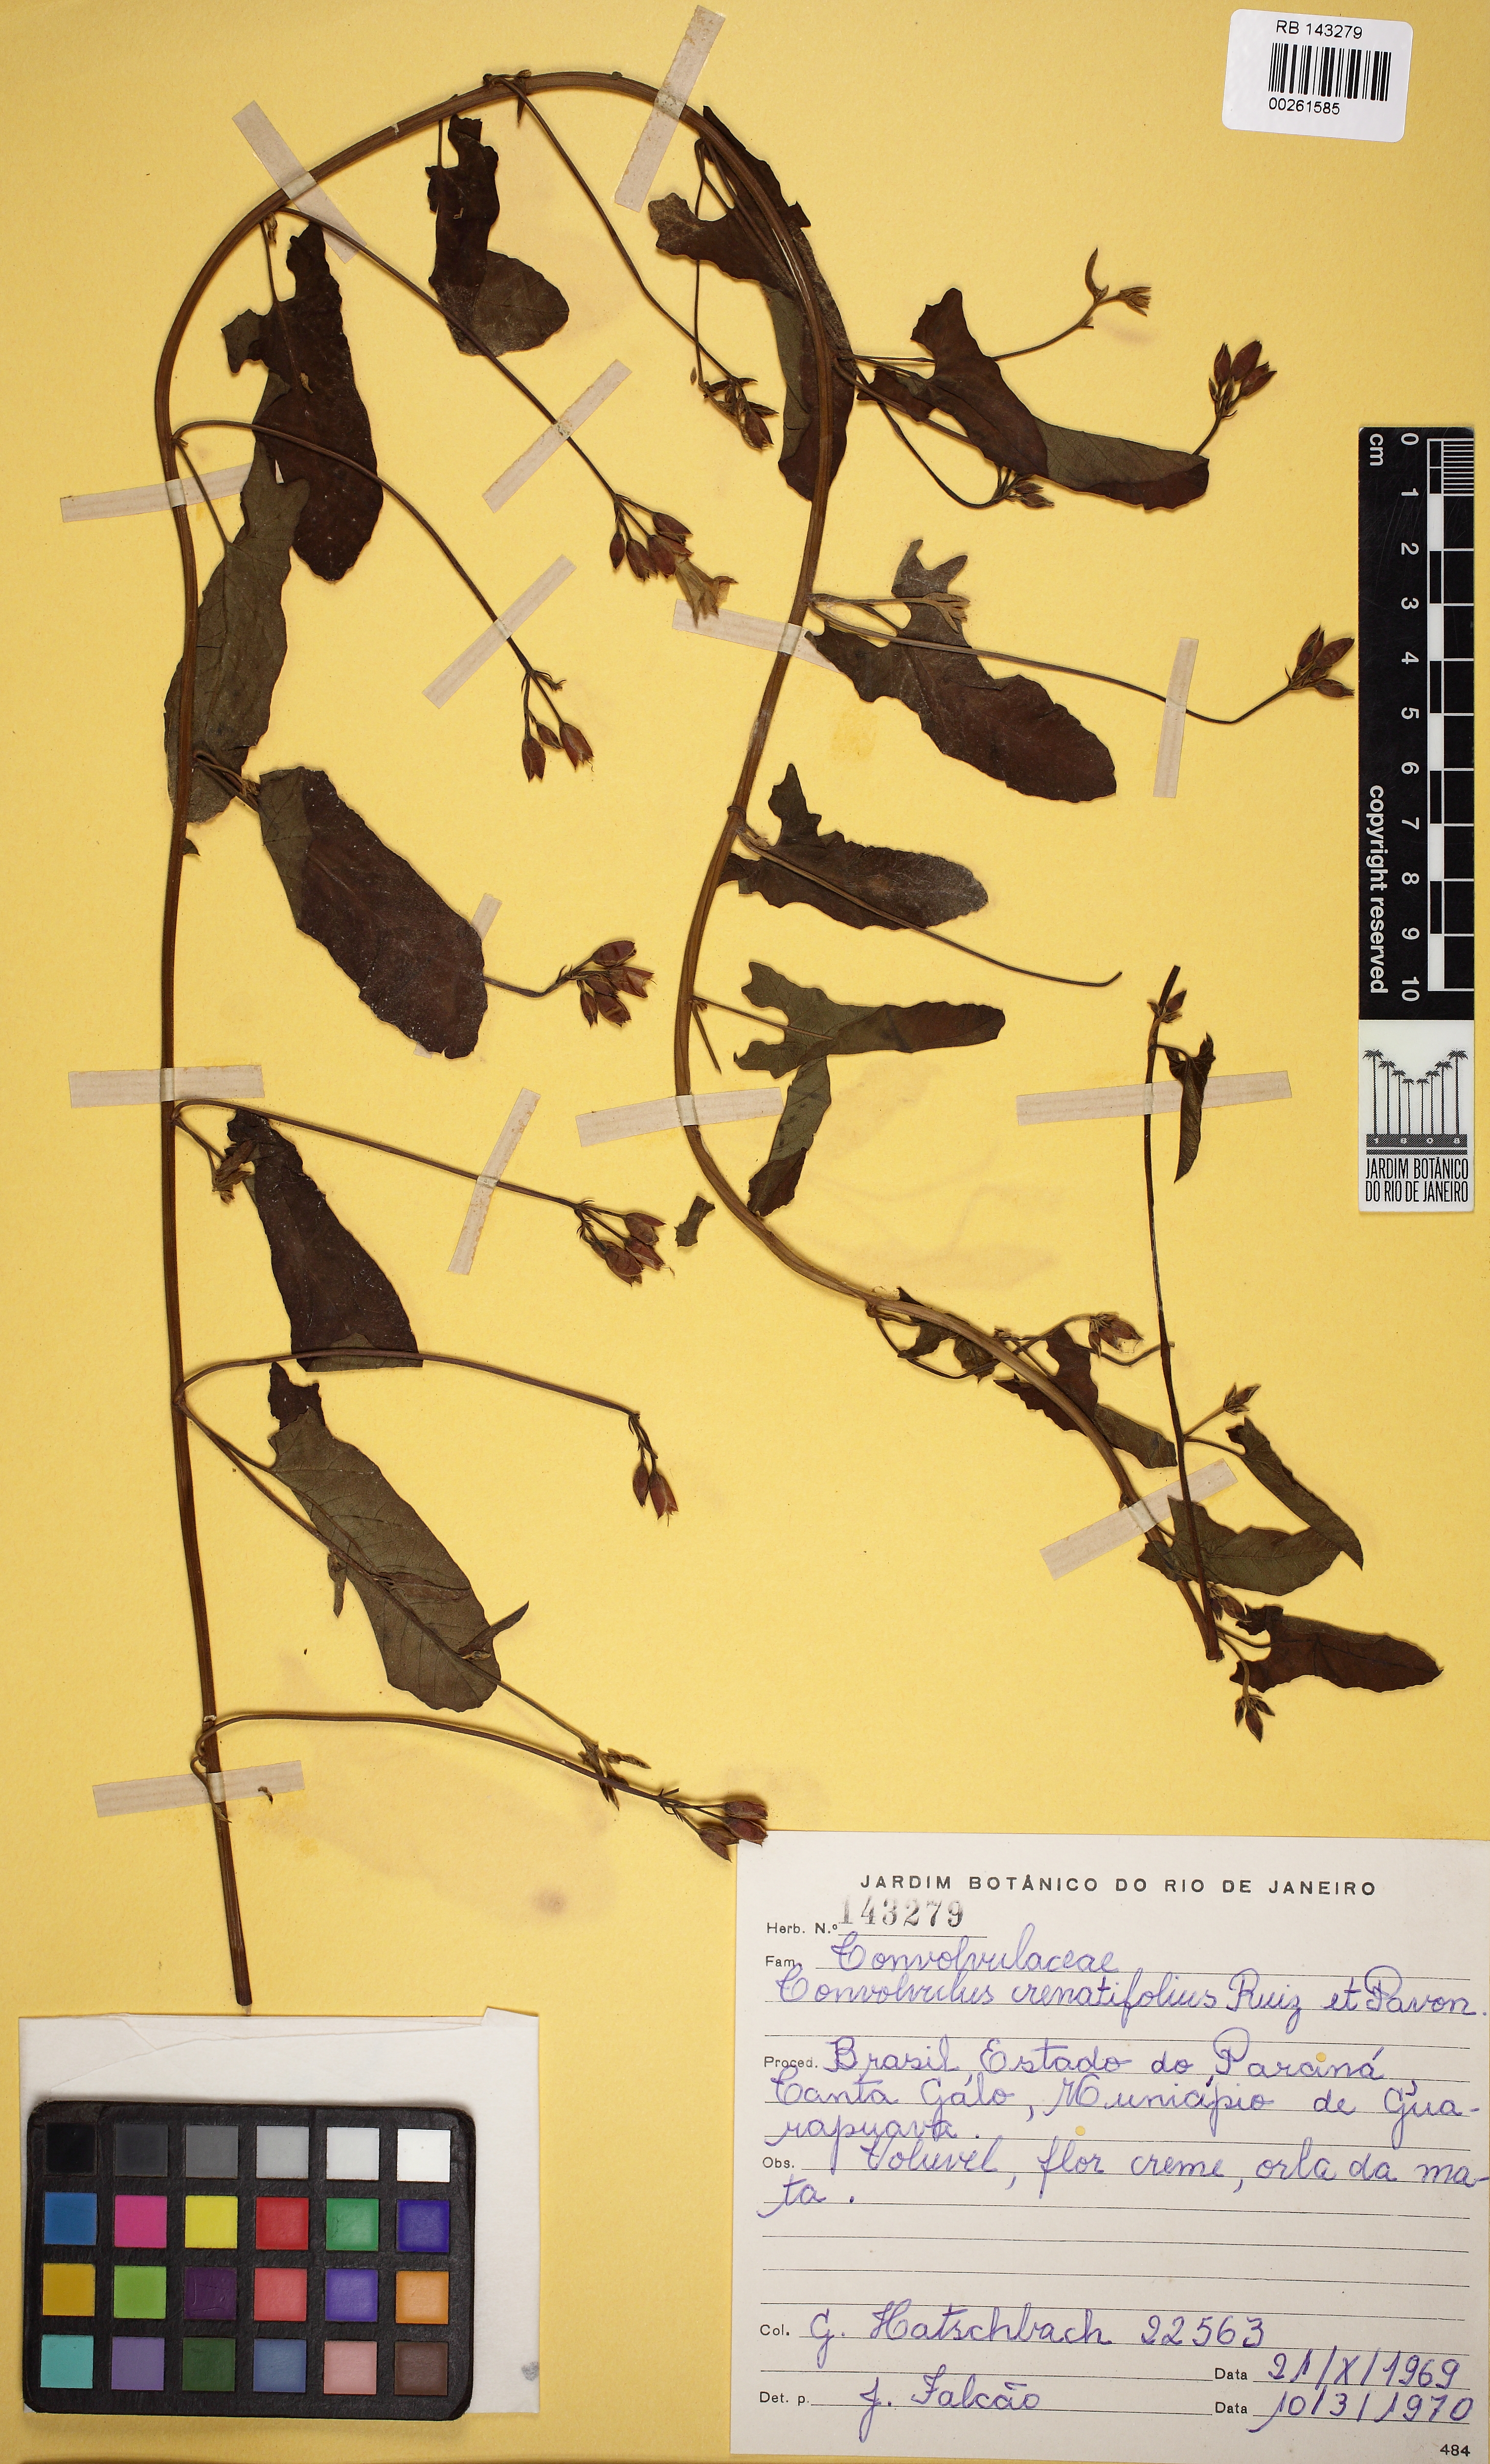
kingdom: Plantae
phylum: Tracheophyta
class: Magnoliopsida
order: Solanales
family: Convolvulaceae
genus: Convolvulus
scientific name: Convolvulus crenatifolius
